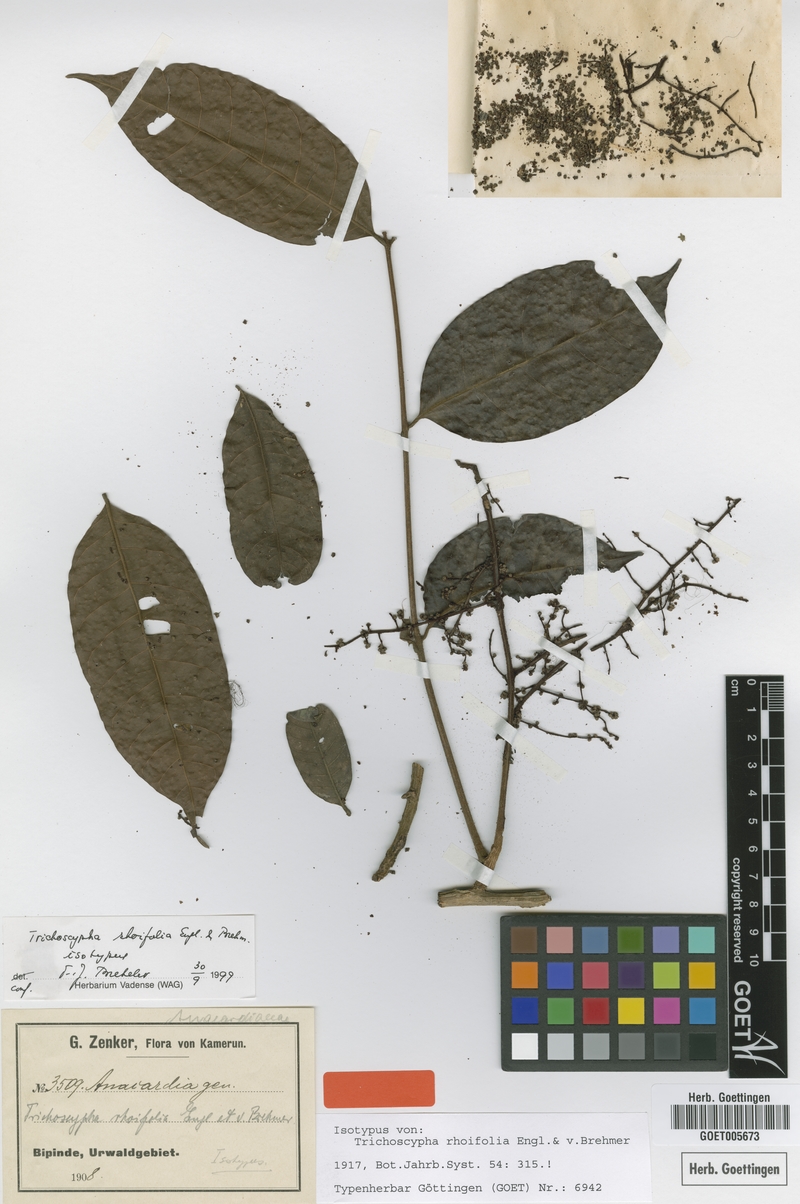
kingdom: Plantae
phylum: Tracheophyta
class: Magnoliopsida
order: Sapindales
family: Anacardiaceae
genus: Trichoscypha
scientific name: Trichoscypha lucens
